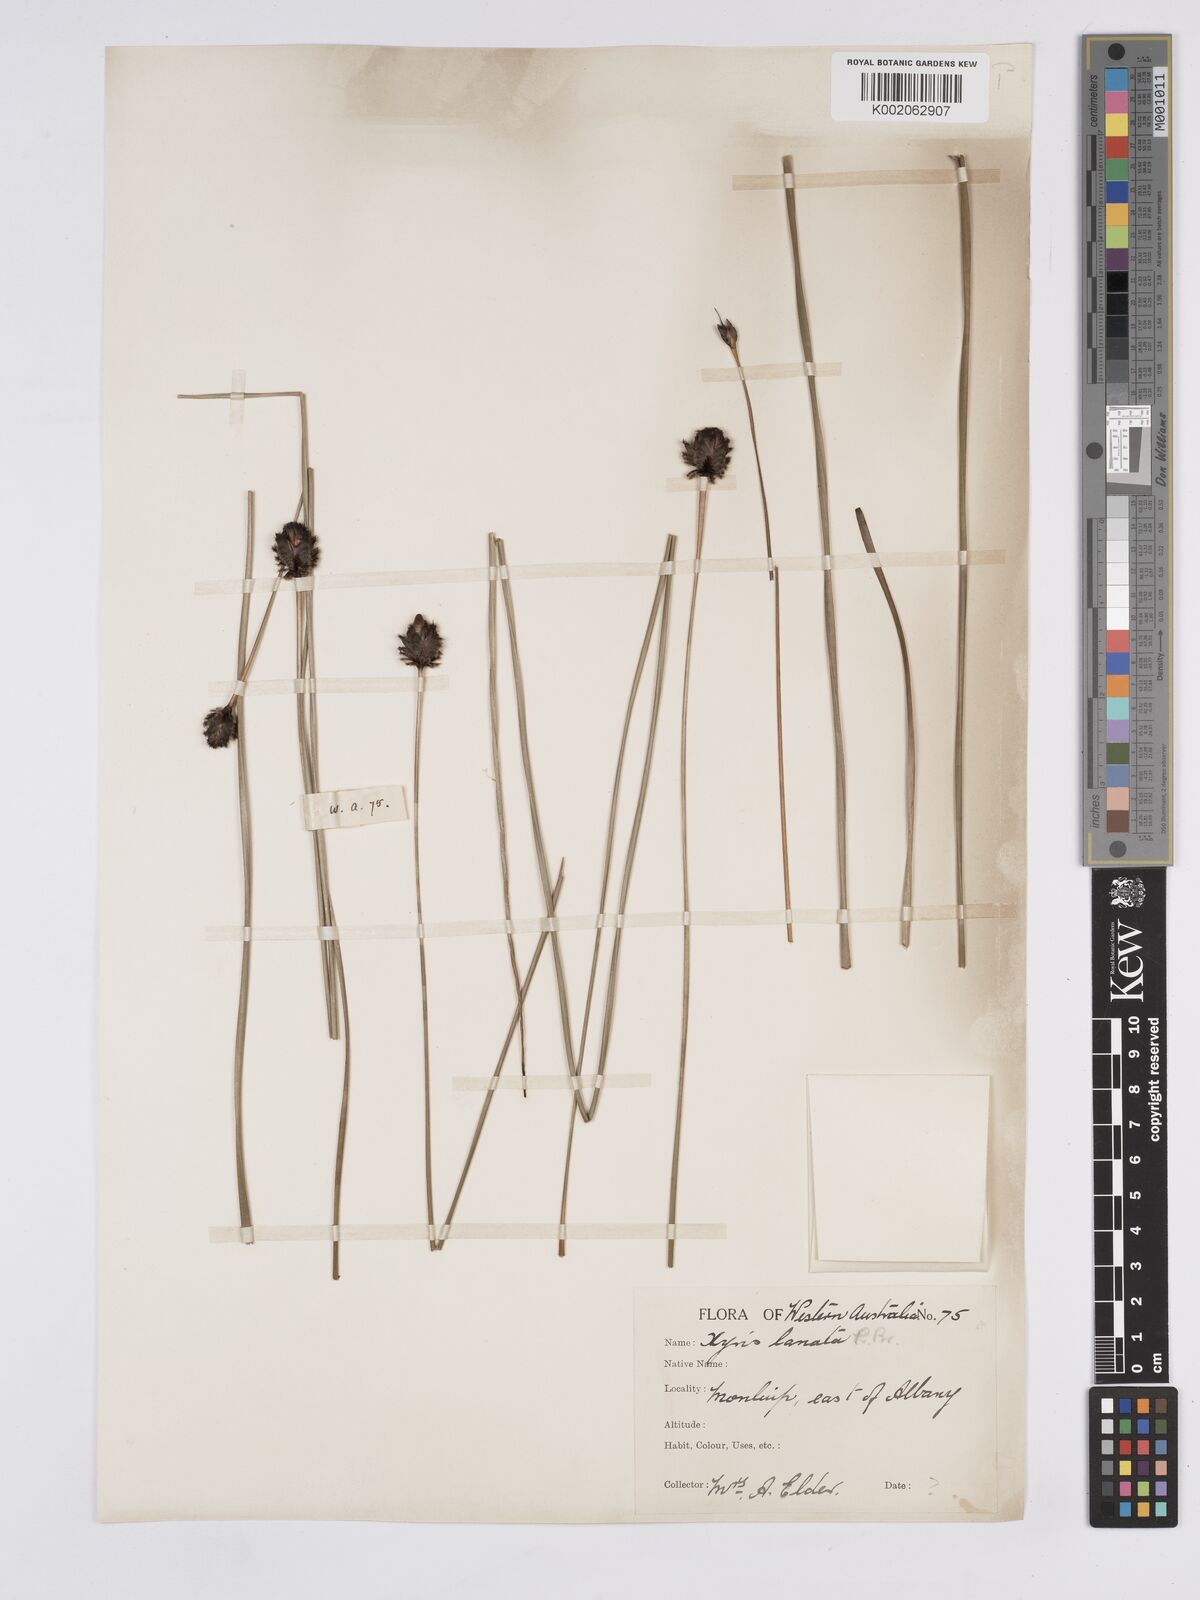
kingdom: Plantae
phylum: Tracheophyta
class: Liliopsida
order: Poales
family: Xyridaceae
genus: Xyris
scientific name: Xyris lanata
